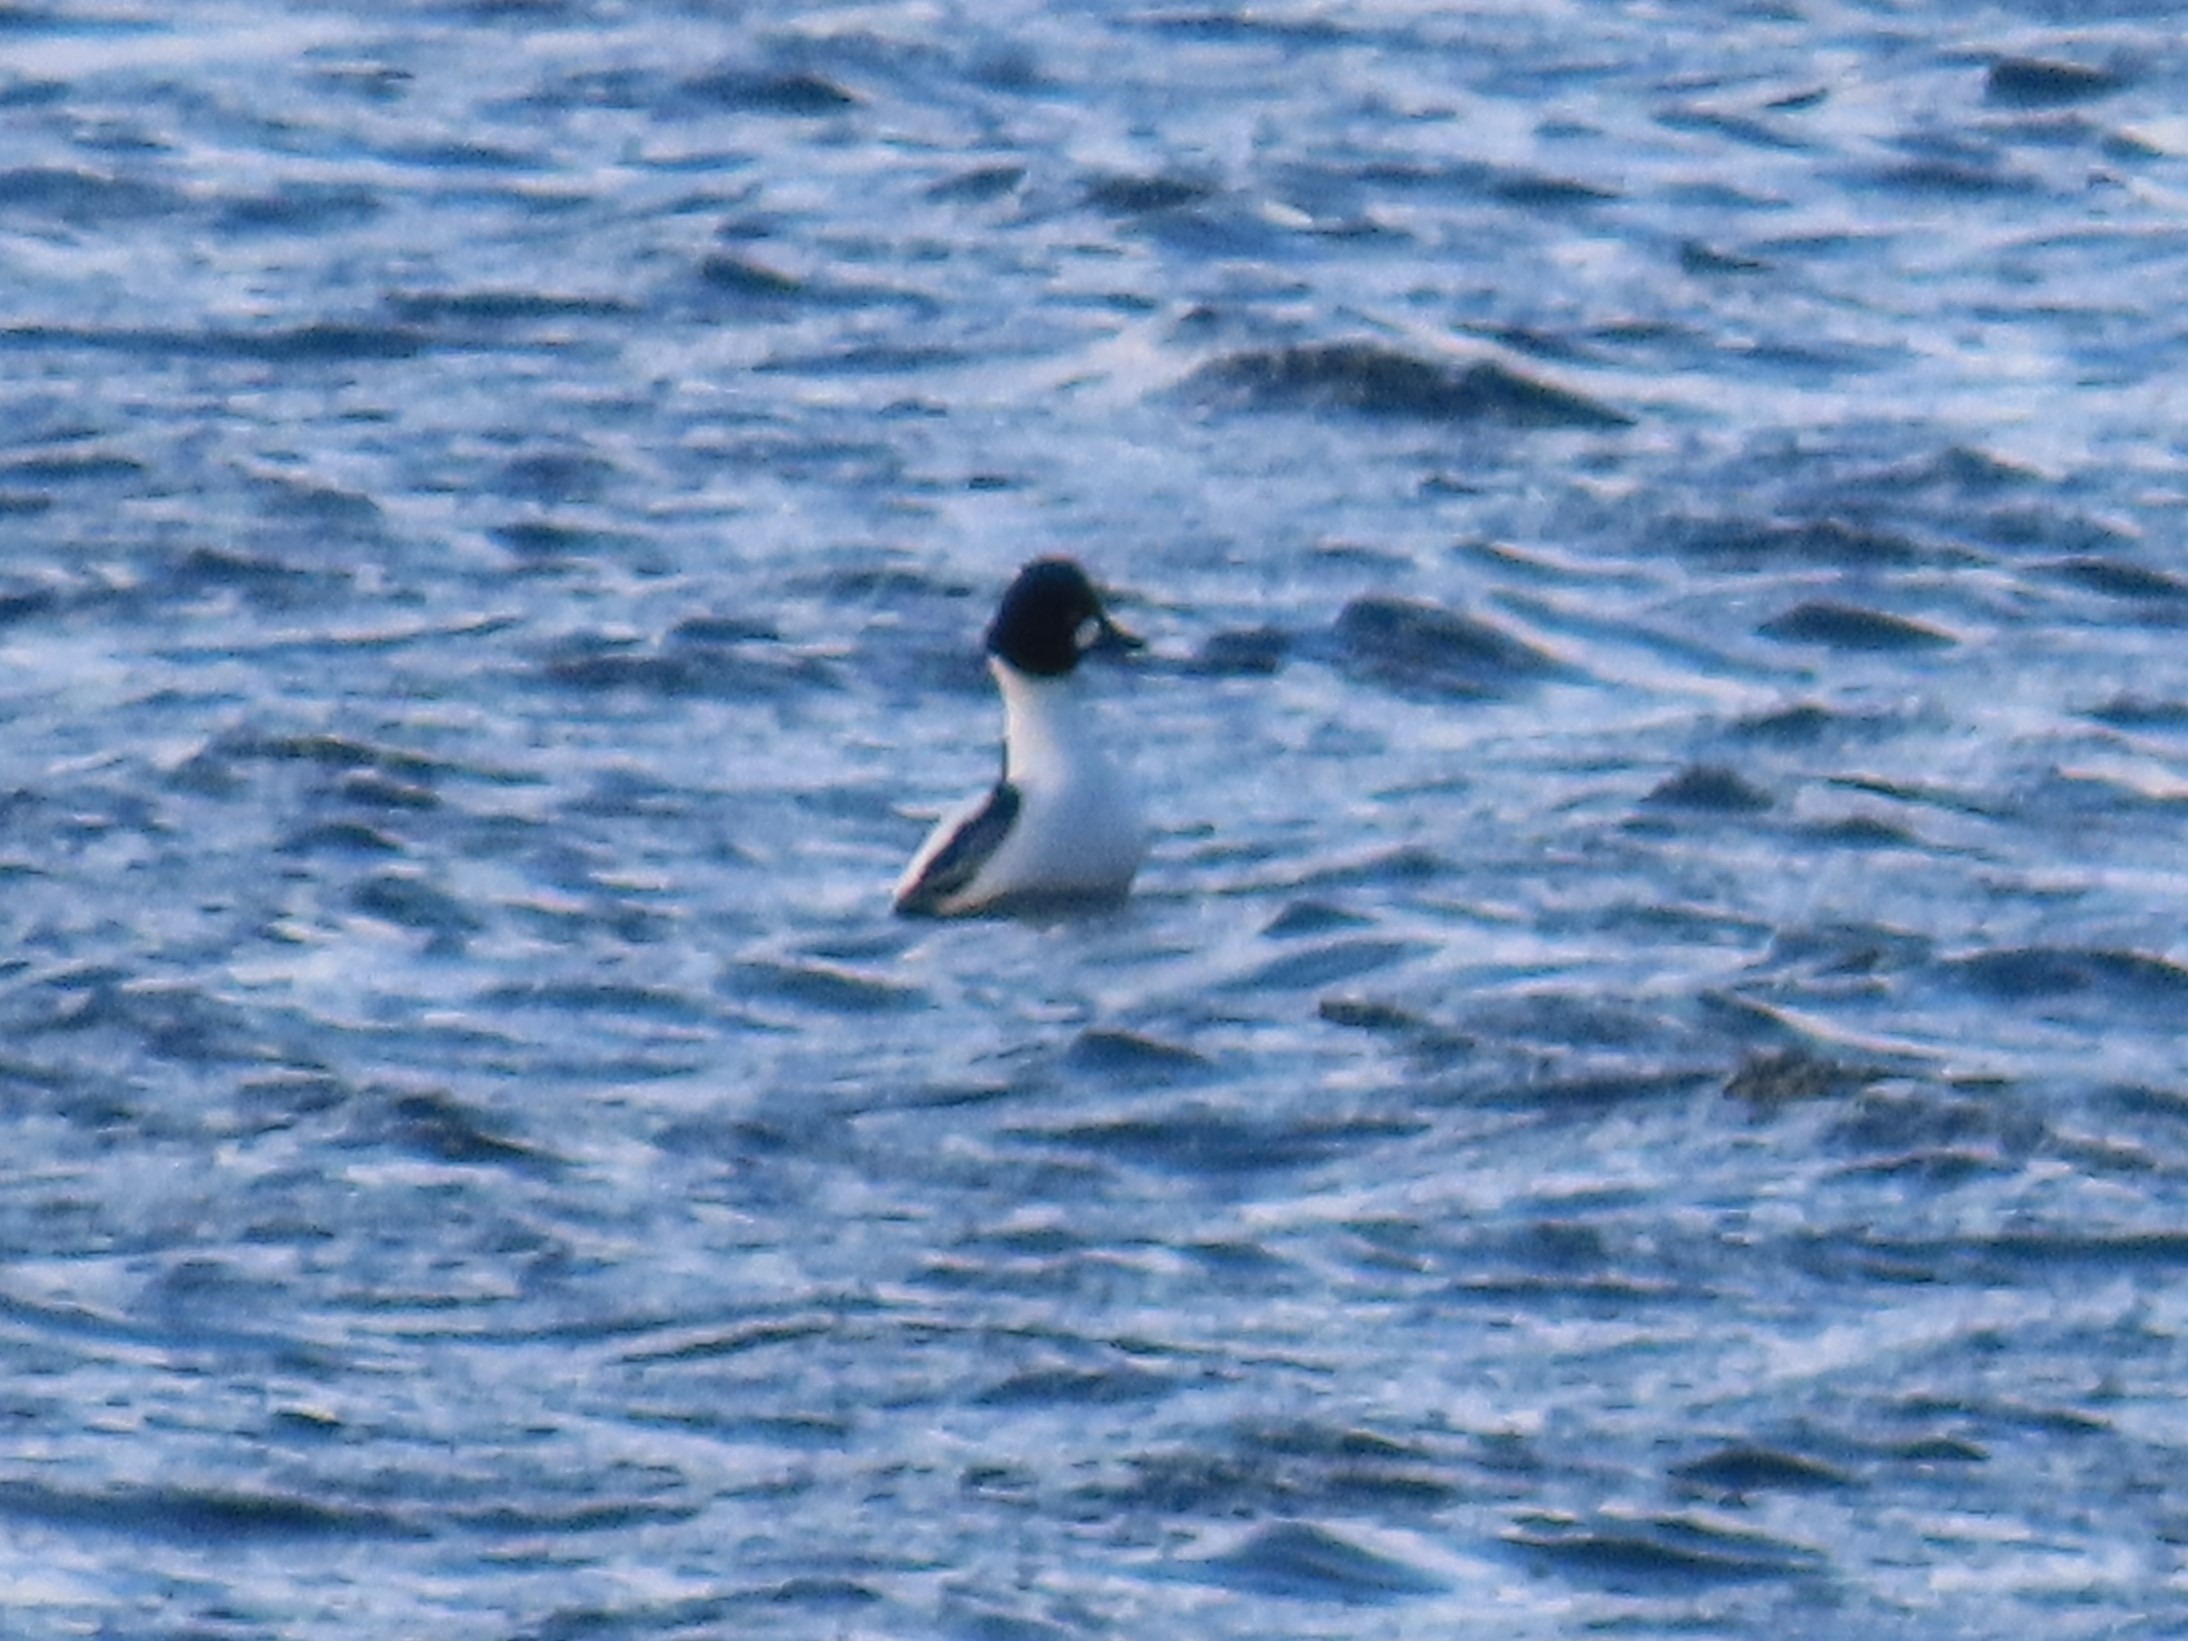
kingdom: Animalia
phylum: Chordata
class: Aves
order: Anseriformes
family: Anatidae
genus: Bucephala
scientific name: Bucephala clangula
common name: Hvinand
